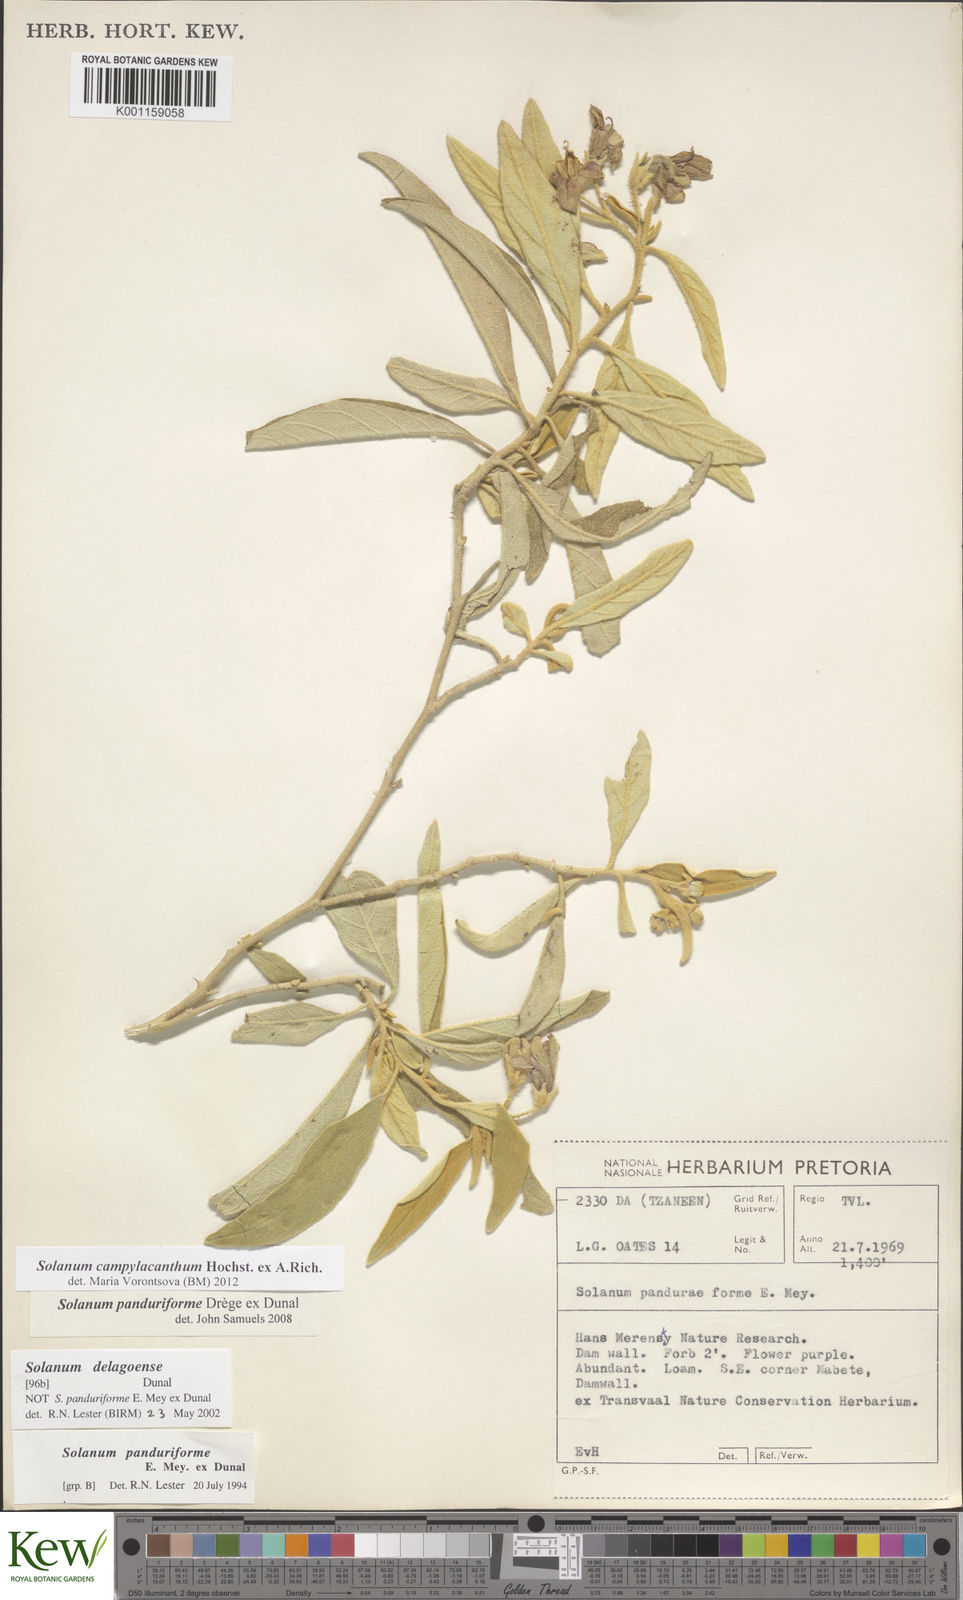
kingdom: Plantae
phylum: Tracheophyta
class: Magnoliopsida
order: Solanales
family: Solanaceae
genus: Solanum
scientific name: Solanum campylacanthum
